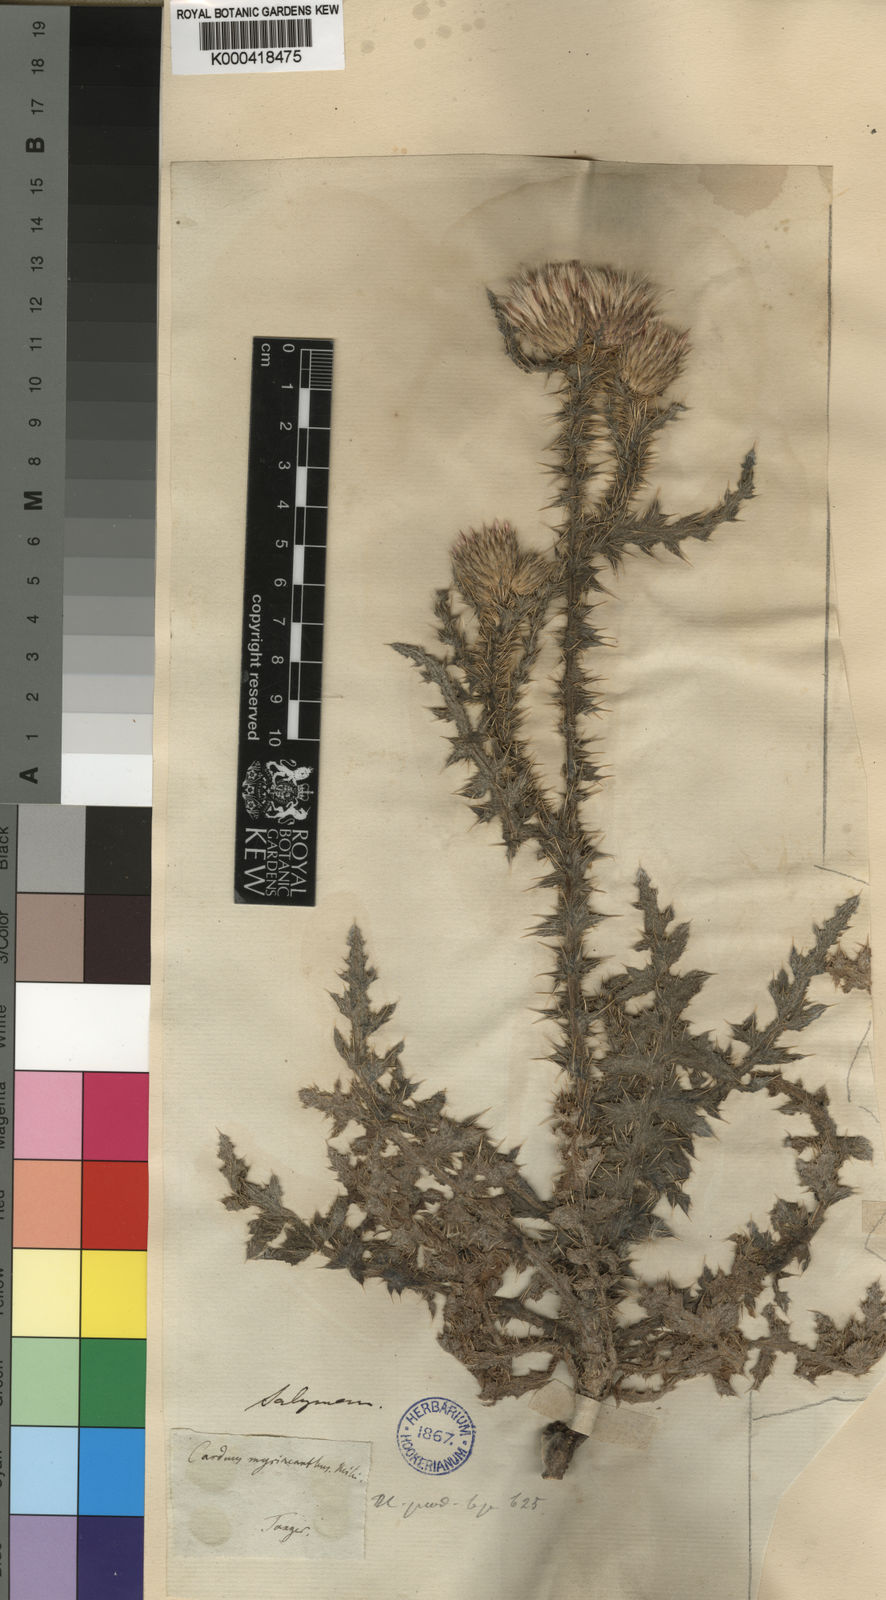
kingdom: Plantae
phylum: Tracheophyta
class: Magnoliopsida
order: Asterales
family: Asteraceae
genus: Carduus
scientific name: Carduus
